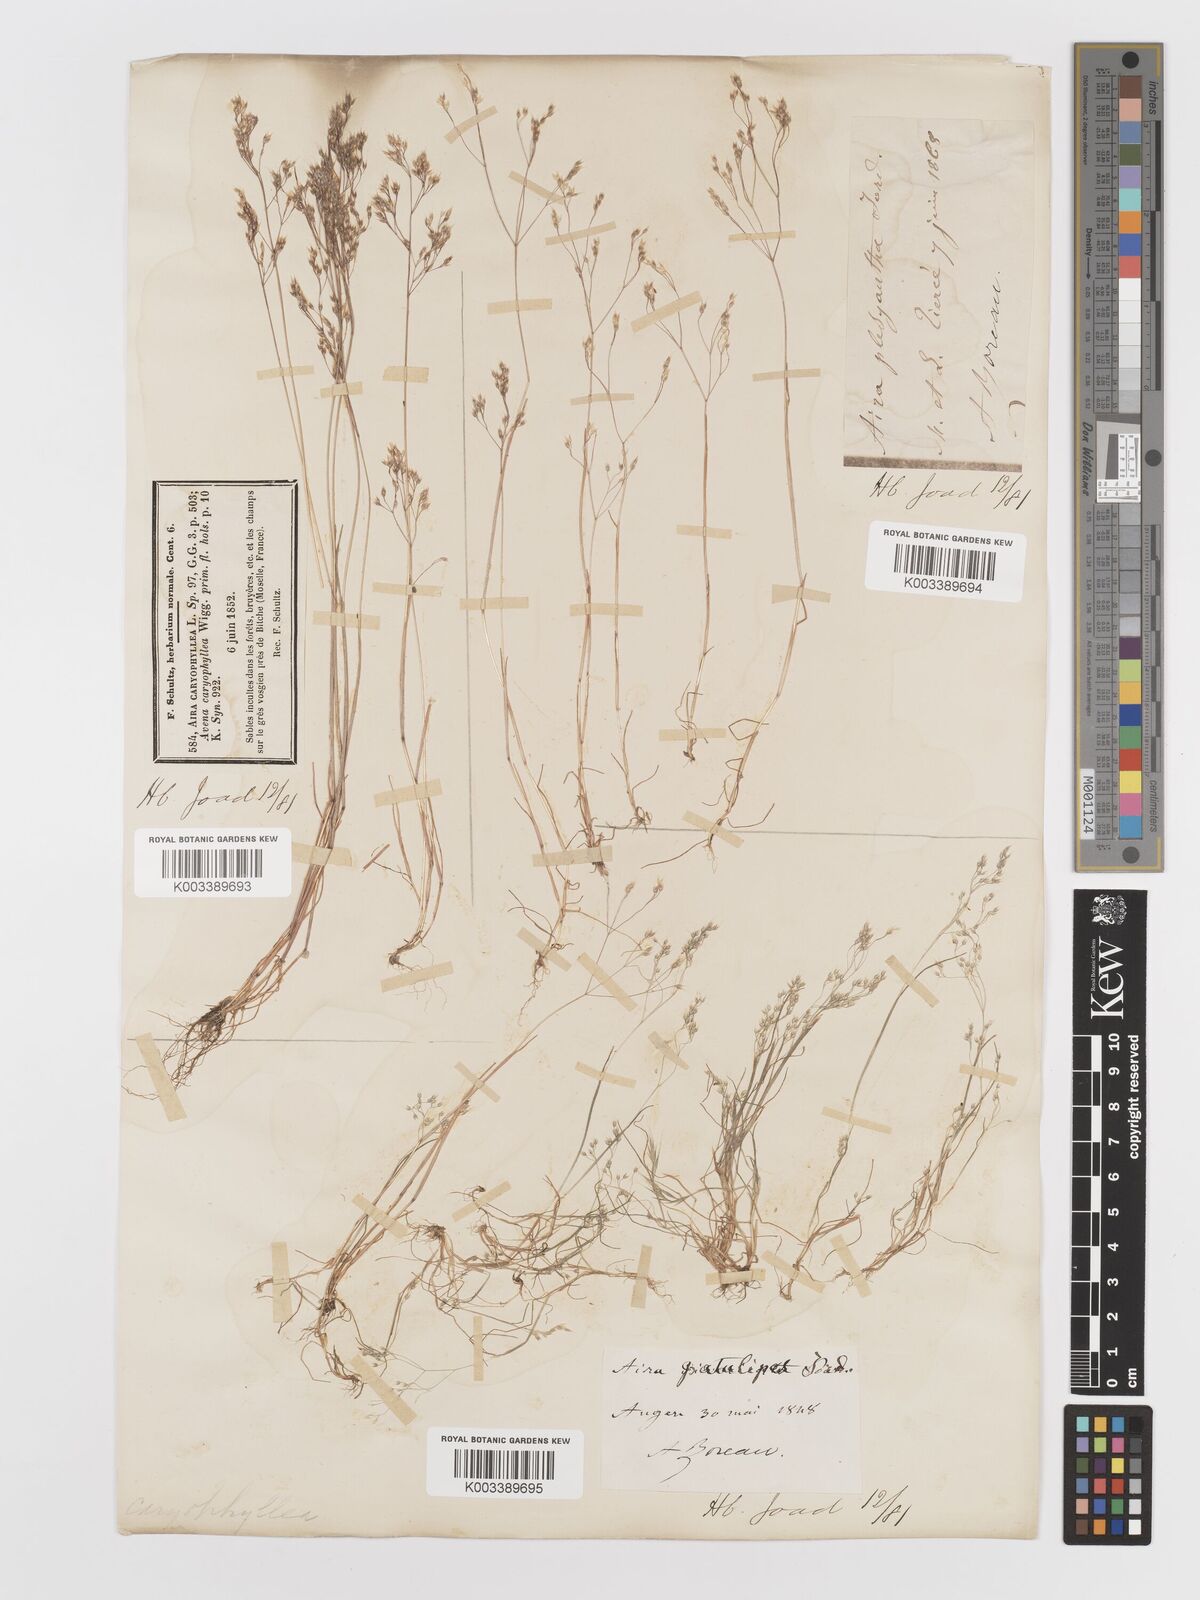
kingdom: Plantae
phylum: Tracheophyta
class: Liliopsida
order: Poales
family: Poaceae
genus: Aira
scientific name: Aira caryophyllea
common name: Silver hairgrass
